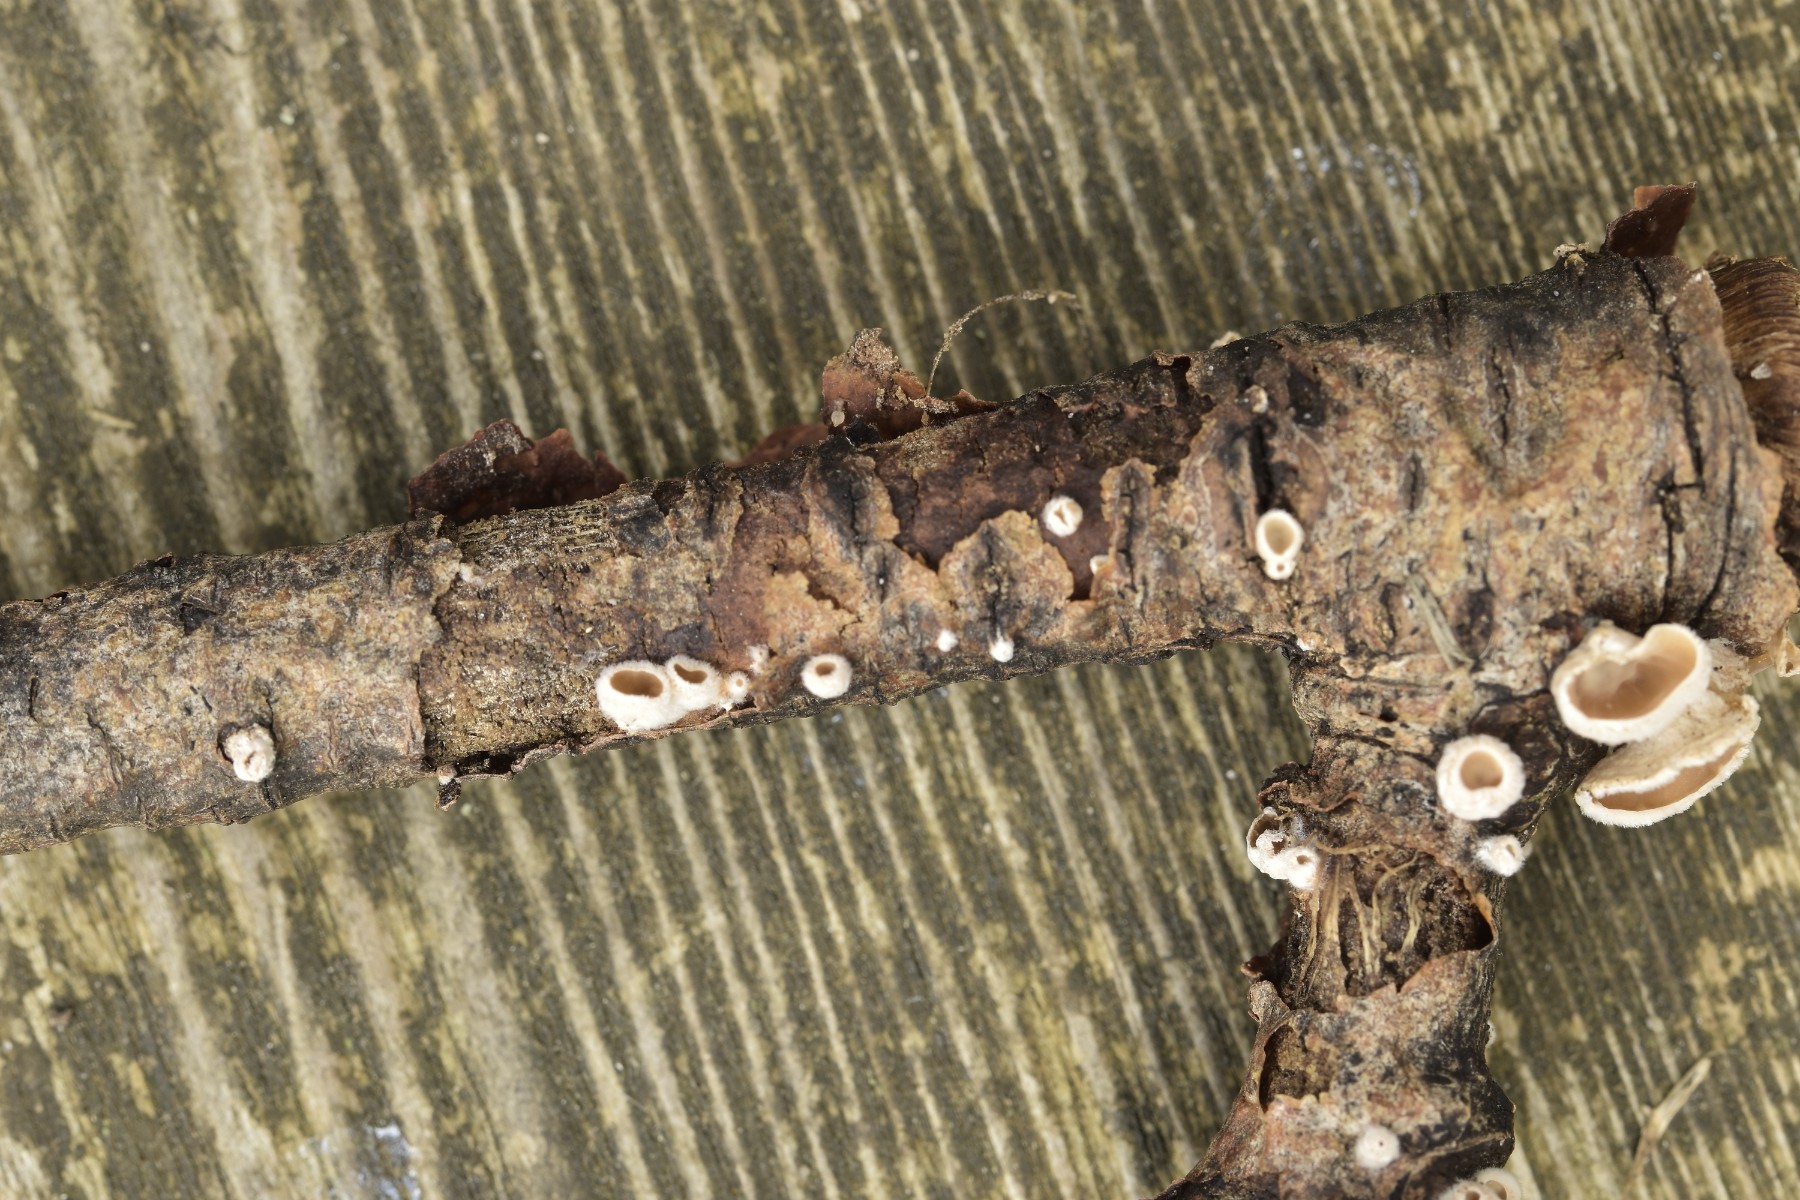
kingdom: Fungi
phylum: Basidiomycota
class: Agaricomycetes
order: Agaricales
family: Schizophyllaceae
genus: Schizophyllum
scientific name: Schizophyllum amplum
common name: poppel-hængeøre
